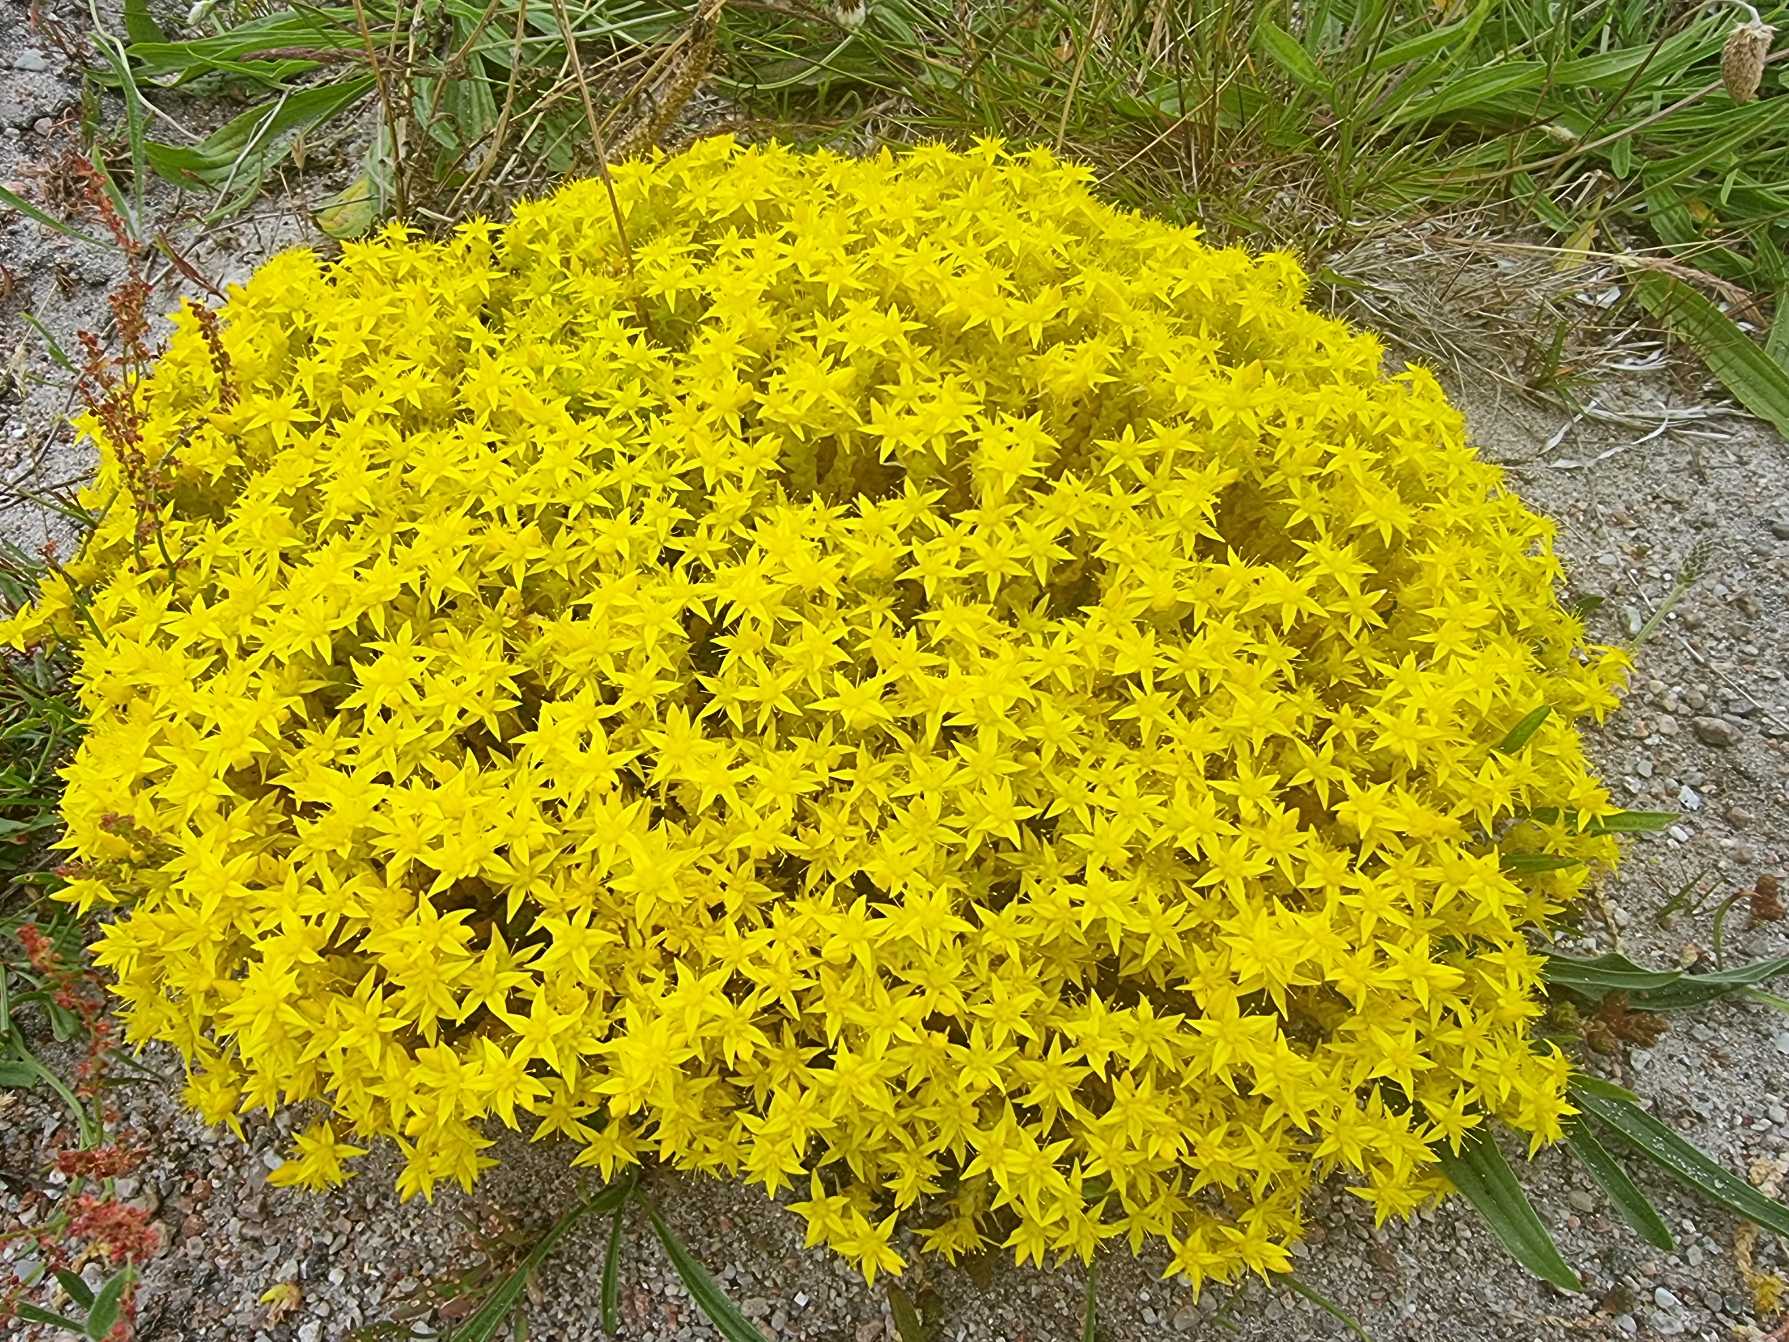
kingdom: Plantae
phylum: Tracheophyta
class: Magnoliopsida
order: Saxifragales
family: Crassulaceae
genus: Sedum
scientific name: Sedum acre
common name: Bidende stenurt
